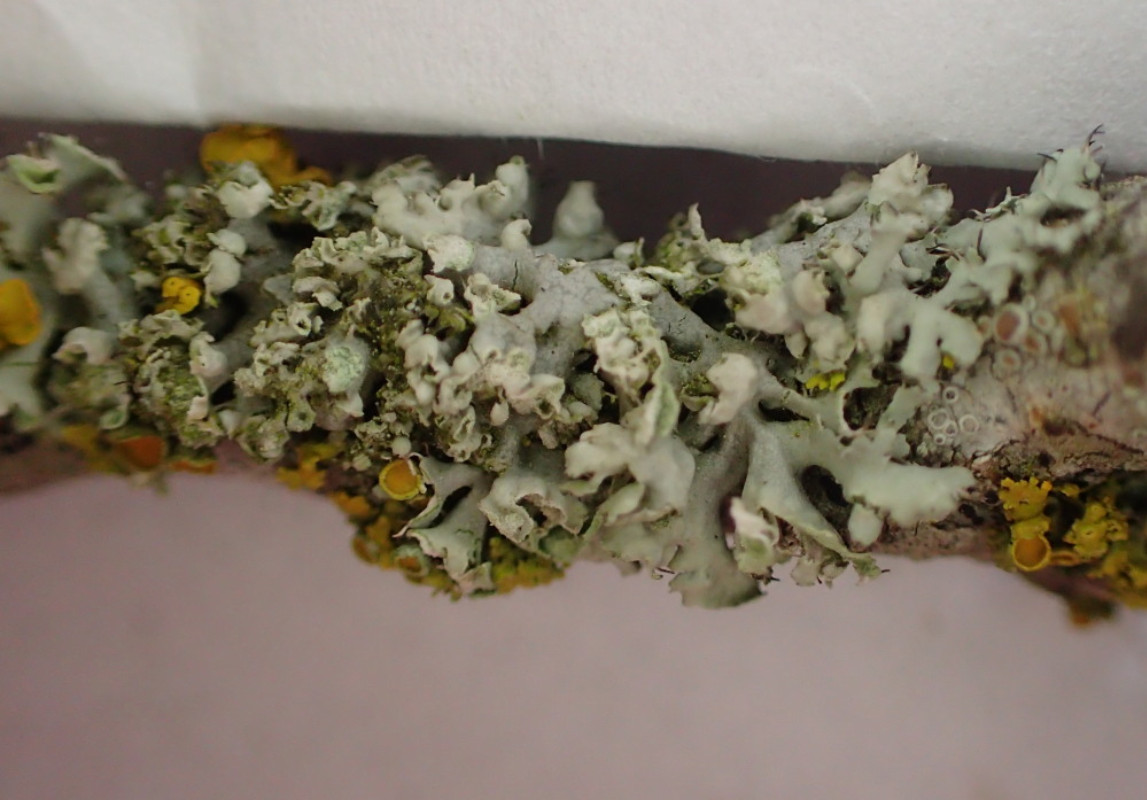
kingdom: Fungi
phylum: Ascomycota
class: Lecanoromycetes
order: Caliciales
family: Physciaceae
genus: Physcia
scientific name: Physcia adscendens
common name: hætte-rosetlav
